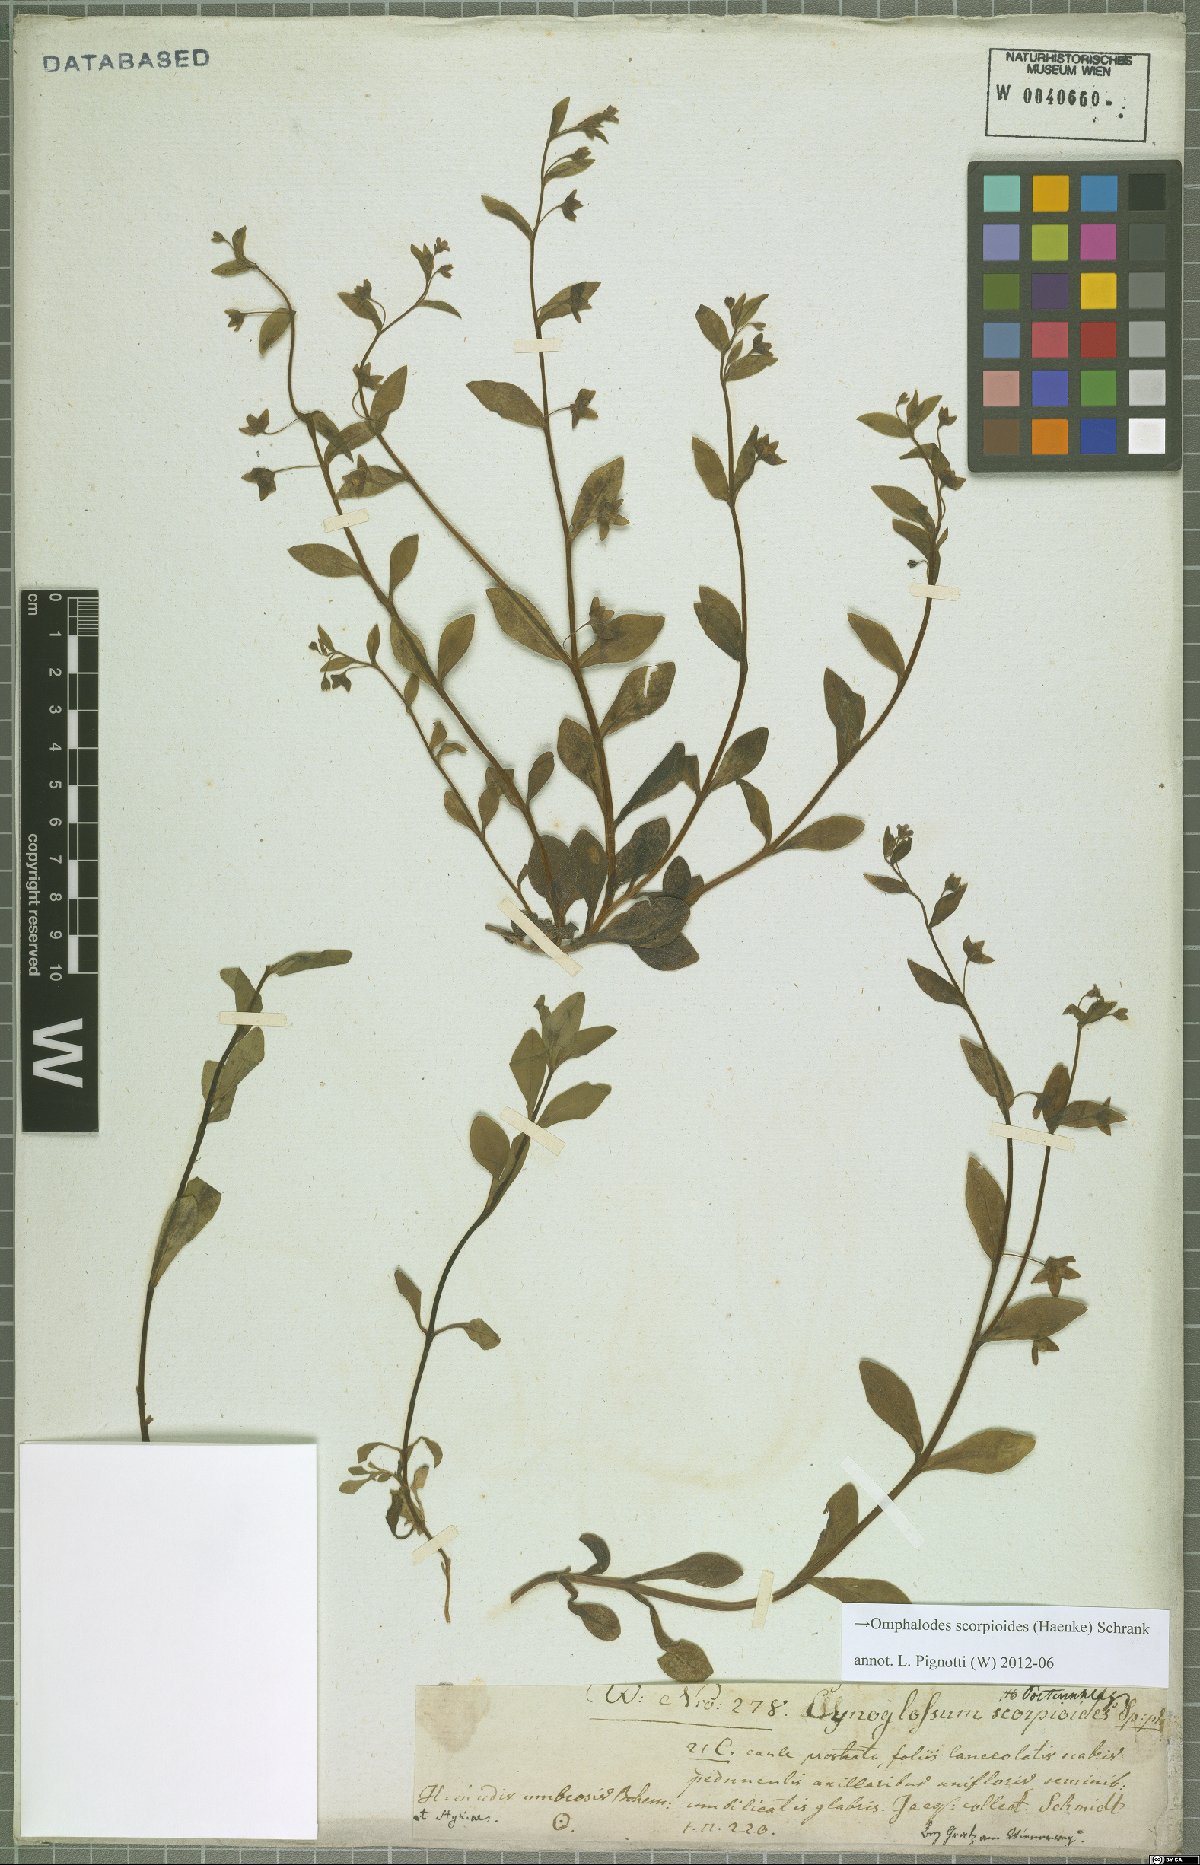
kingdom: Plantae
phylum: Tracheophyta
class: Magnoliopsida
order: Boraginales
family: Boraginaceae
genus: Memoremea
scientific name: Memoremea scorpioides
